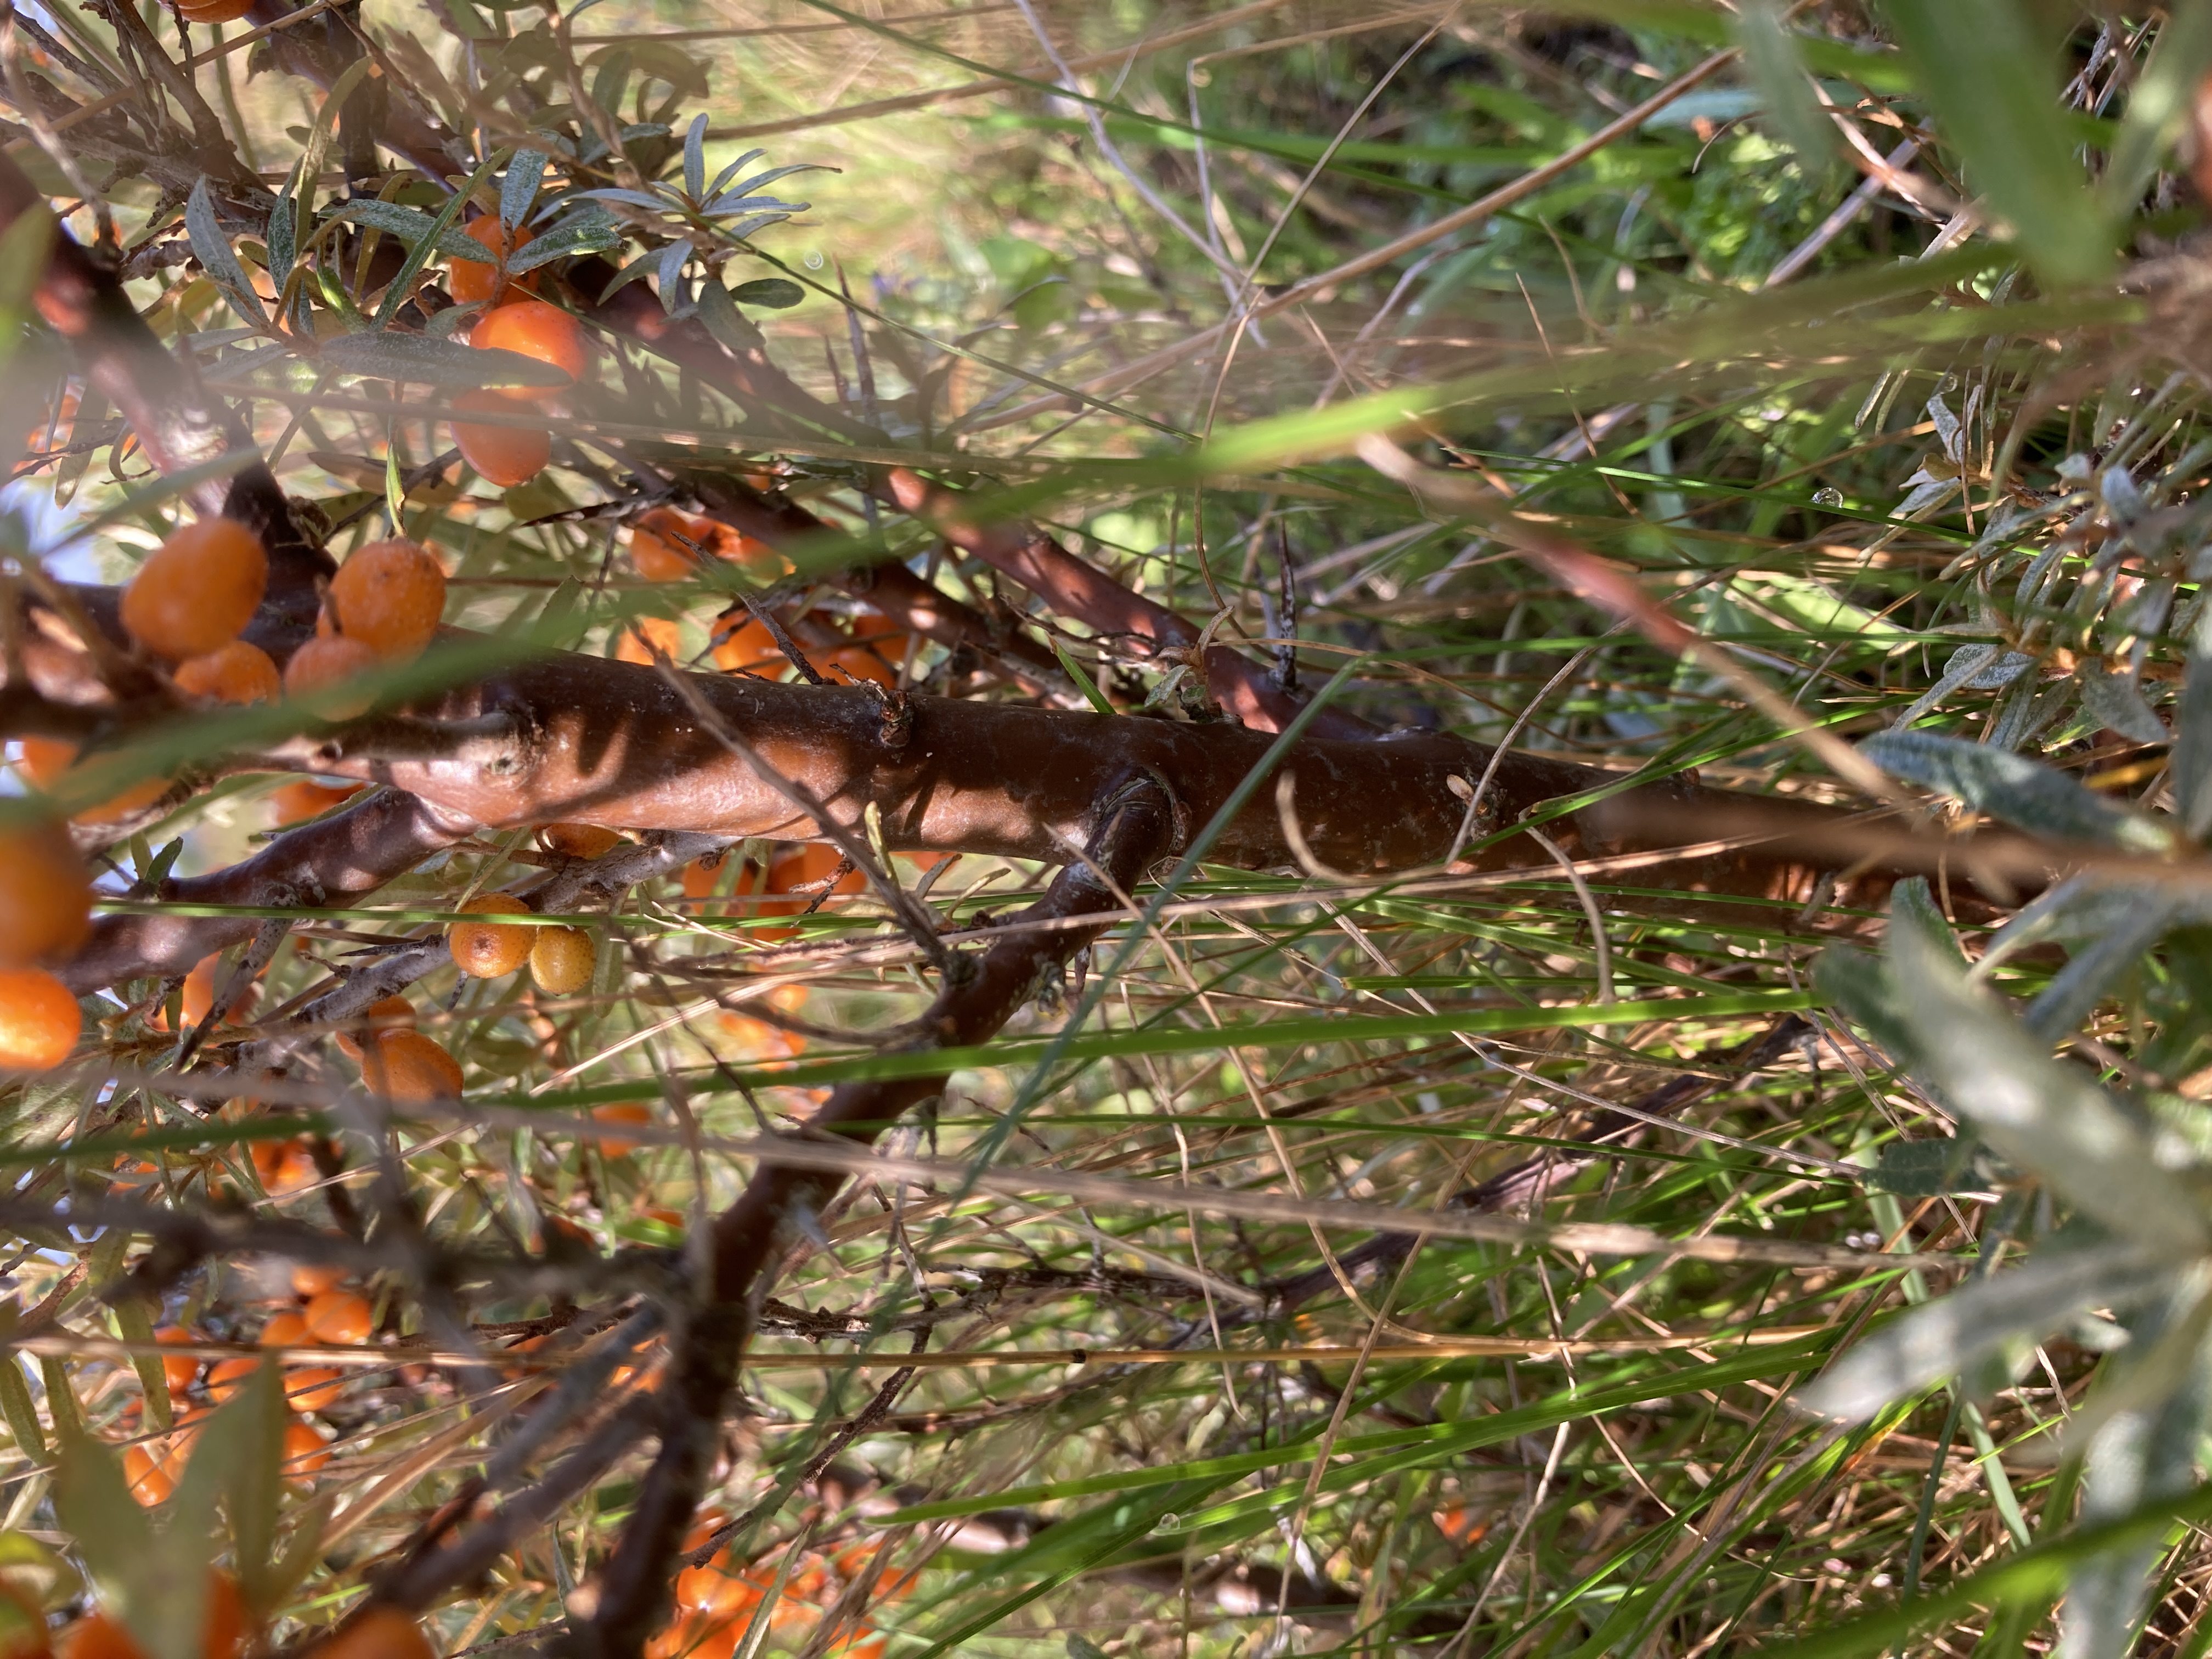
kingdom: Plantae
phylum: Tracheophyta
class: Magnoliopsida
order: Rosales
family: Elaeagnaceae
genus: Hippophae
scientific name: Hippophae rhamnoides
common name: Havtorn
